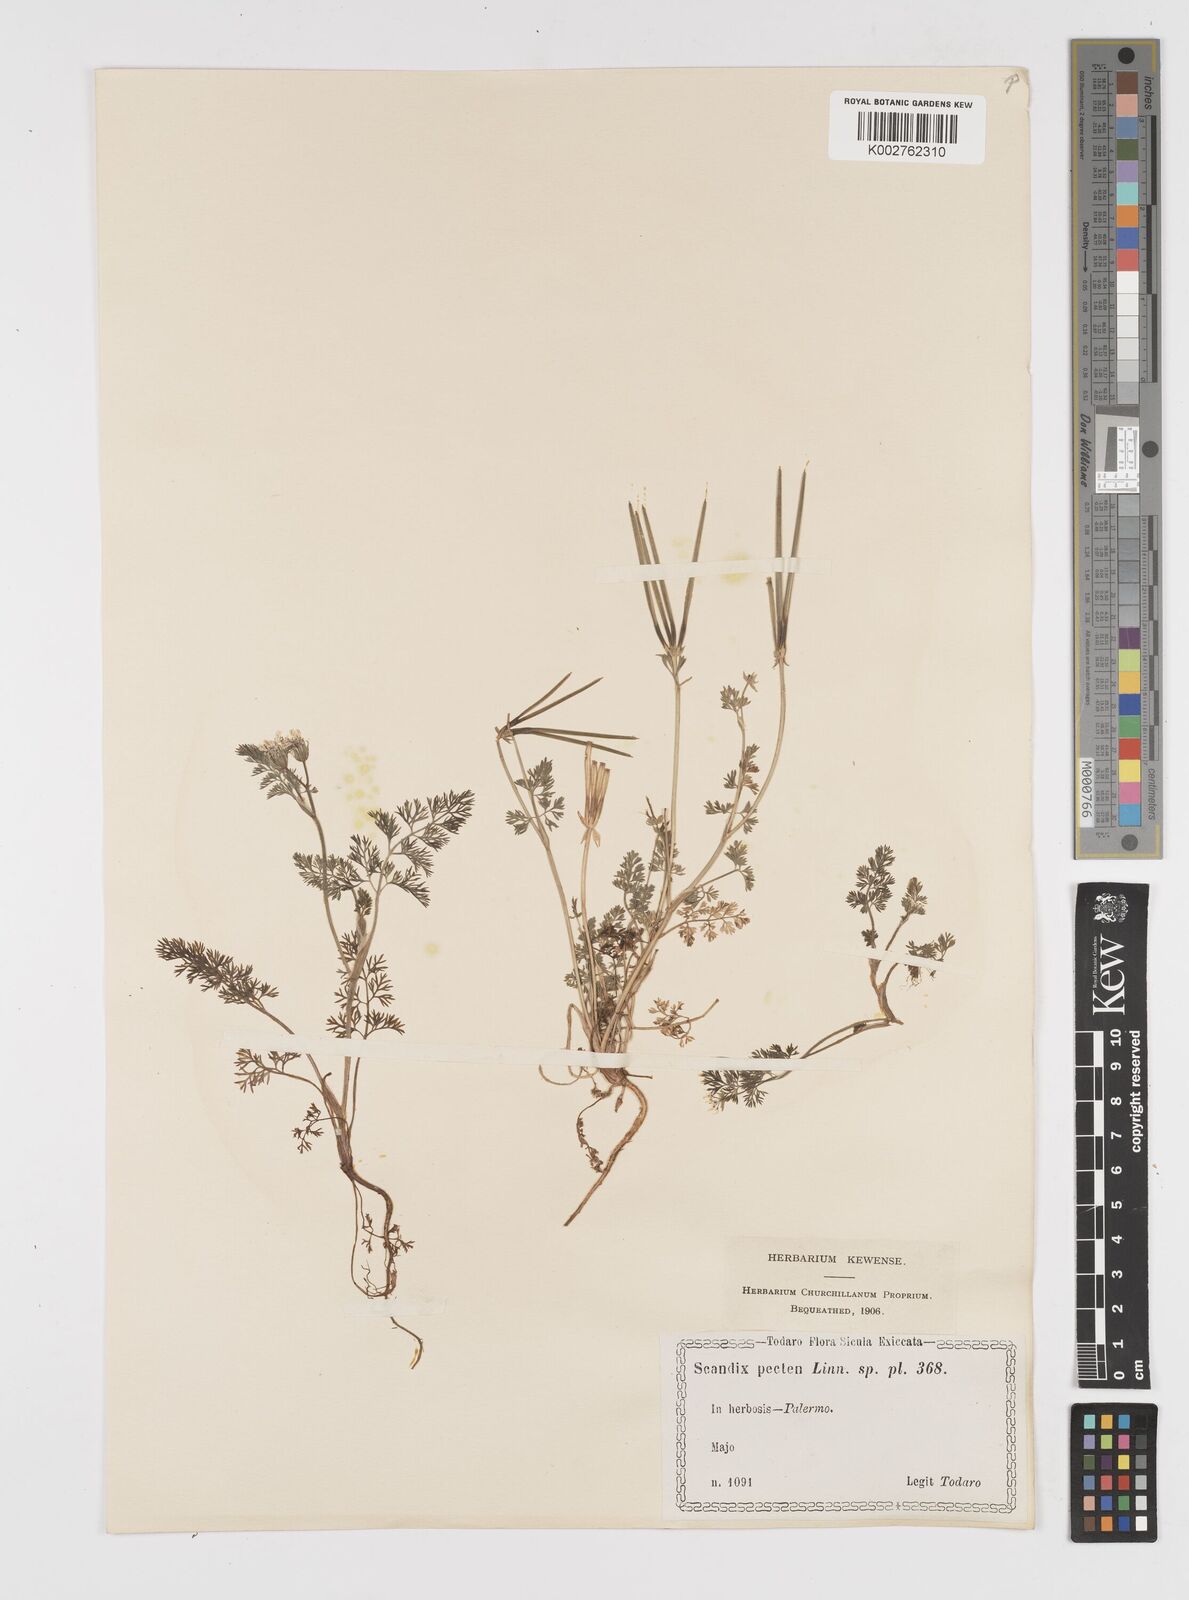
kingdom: Plantae
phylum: Tracheophyta
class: Magnoliopsida
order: Apiales
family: Apiaceae
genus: Scandix
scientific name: Scandix pecten-veneris
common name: Shepherd's-needle
